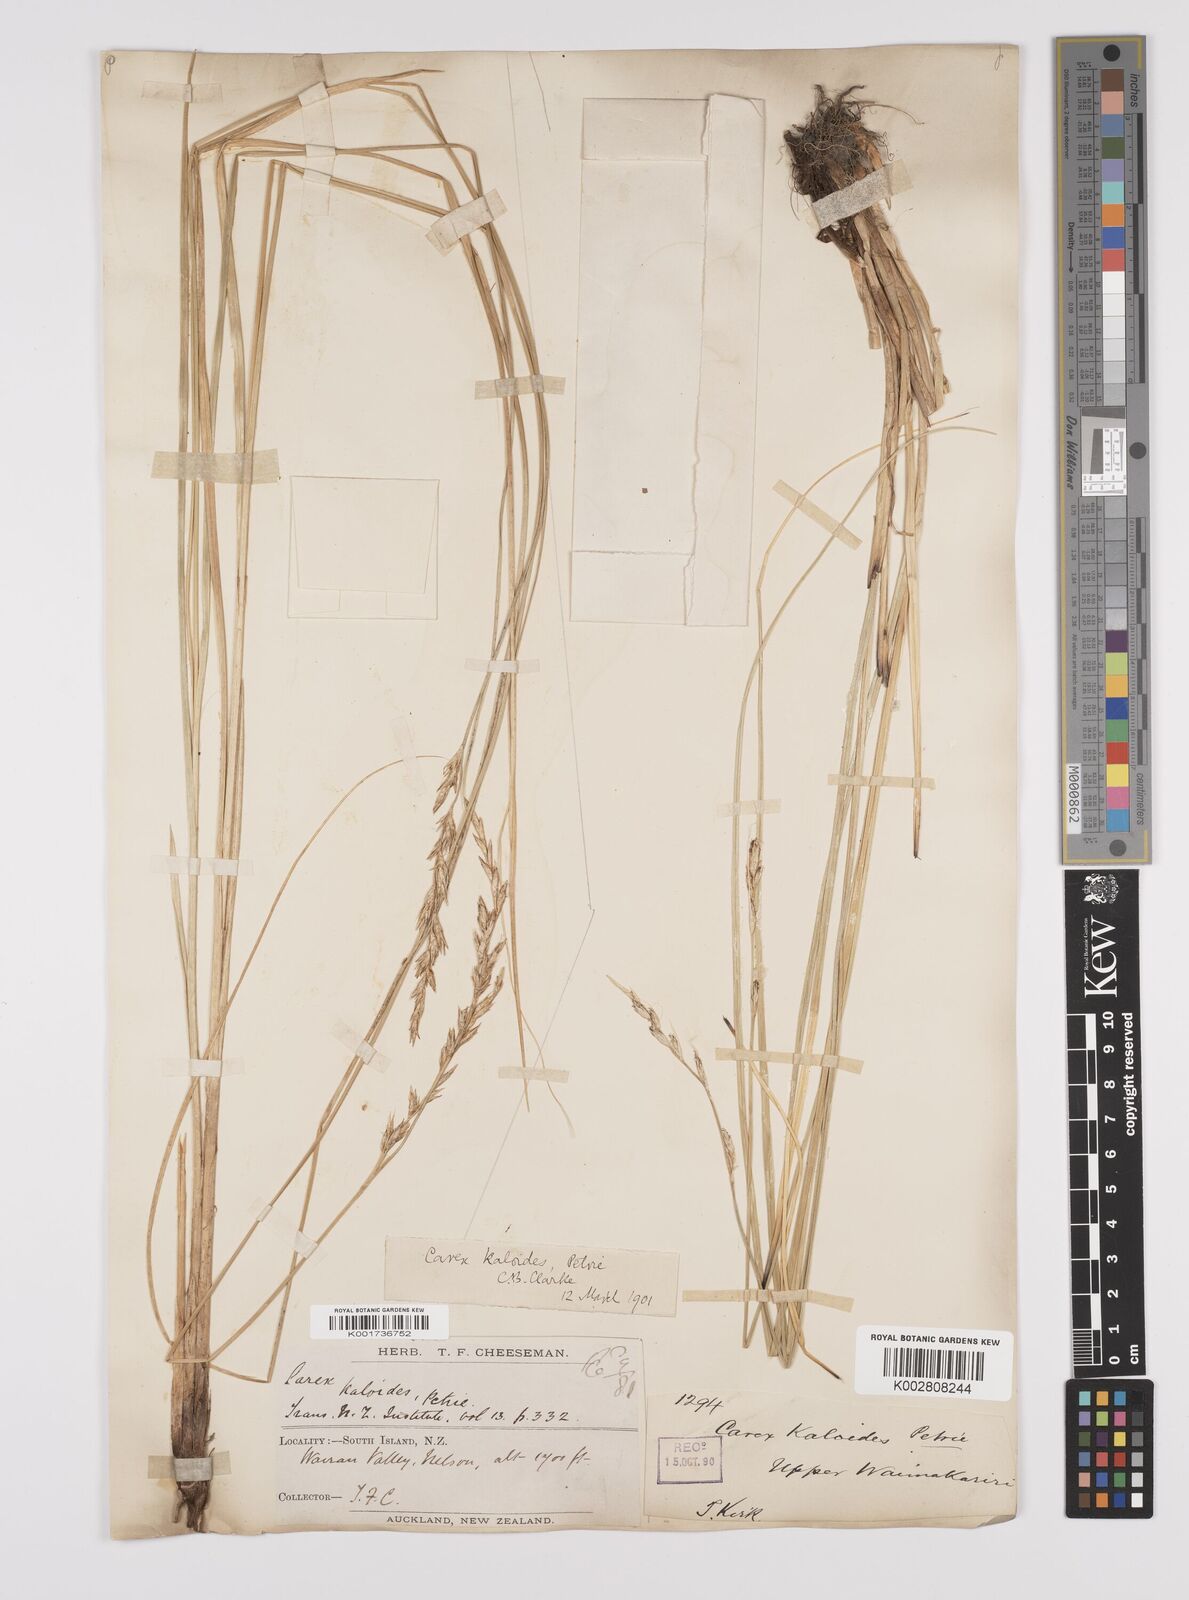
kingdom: Plantae
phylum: Tracheophyta
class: Liliopsida
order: Poales
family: Cyperaceae
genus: Carex
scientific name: Carex kaloides
